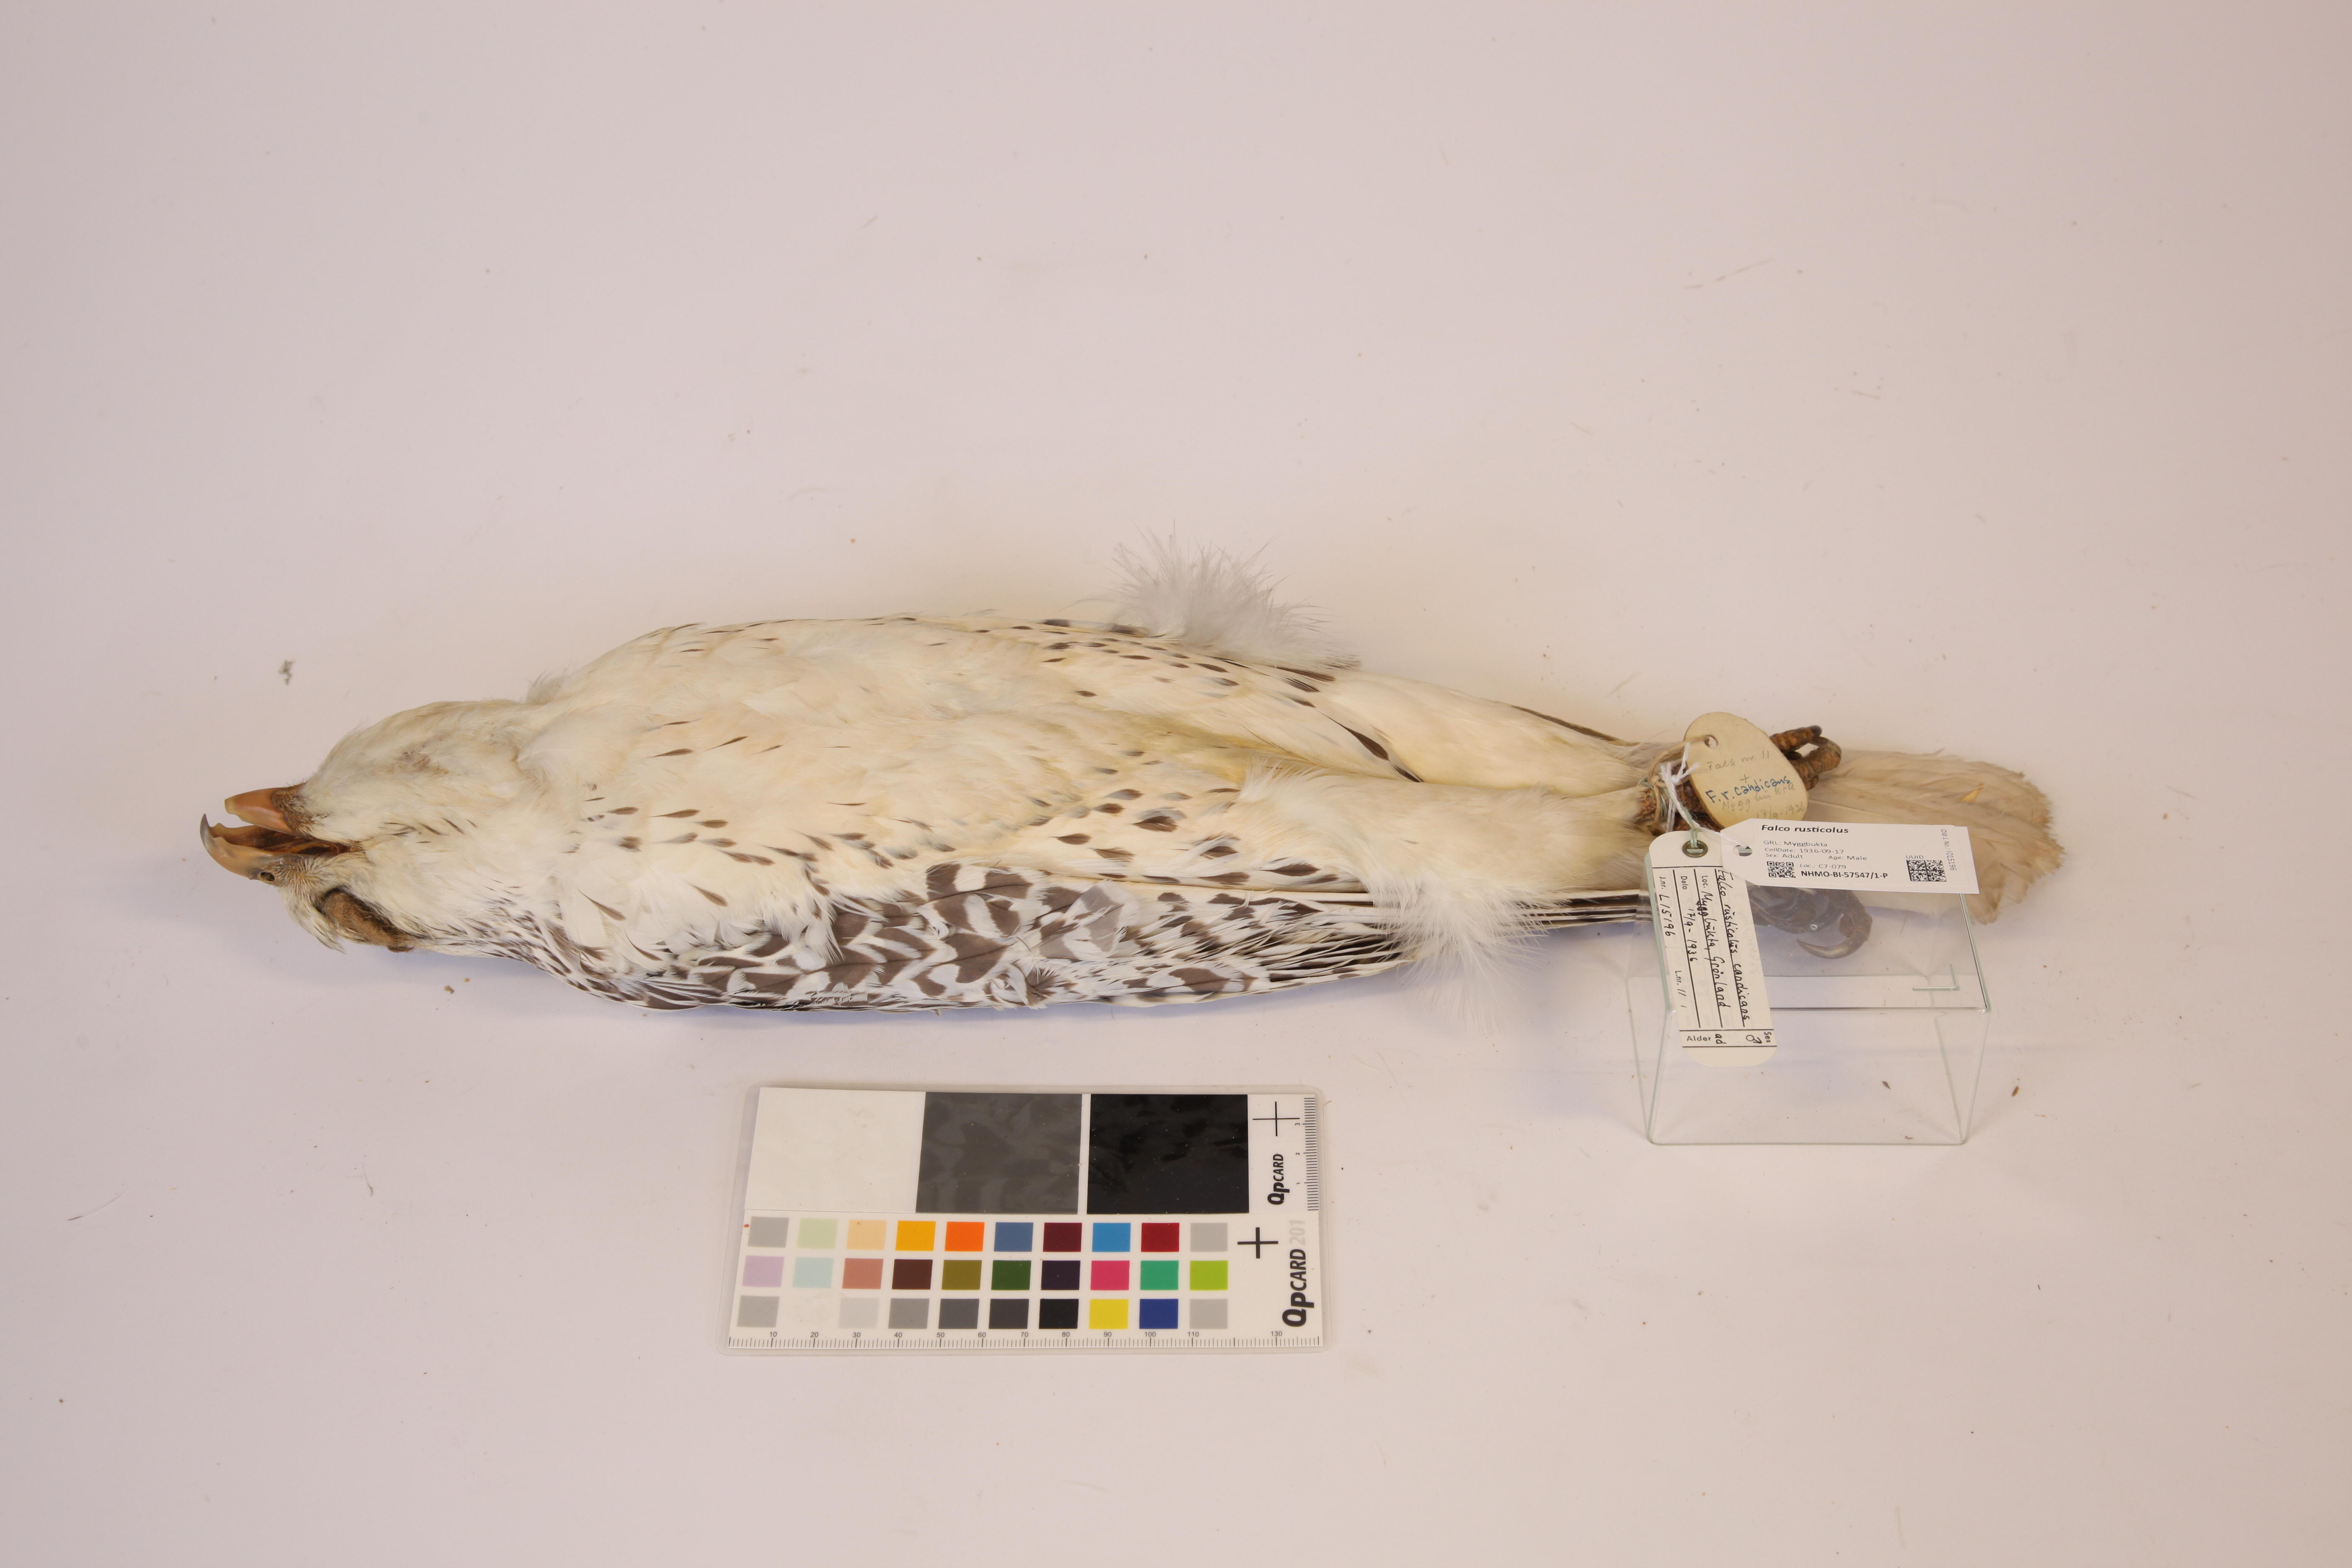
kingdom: Animalia
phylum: Chordata
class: Aves
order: Falconiformes
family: Falconidae
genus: Falco
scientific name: Falco rusticolus
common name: Gyrfalcon
